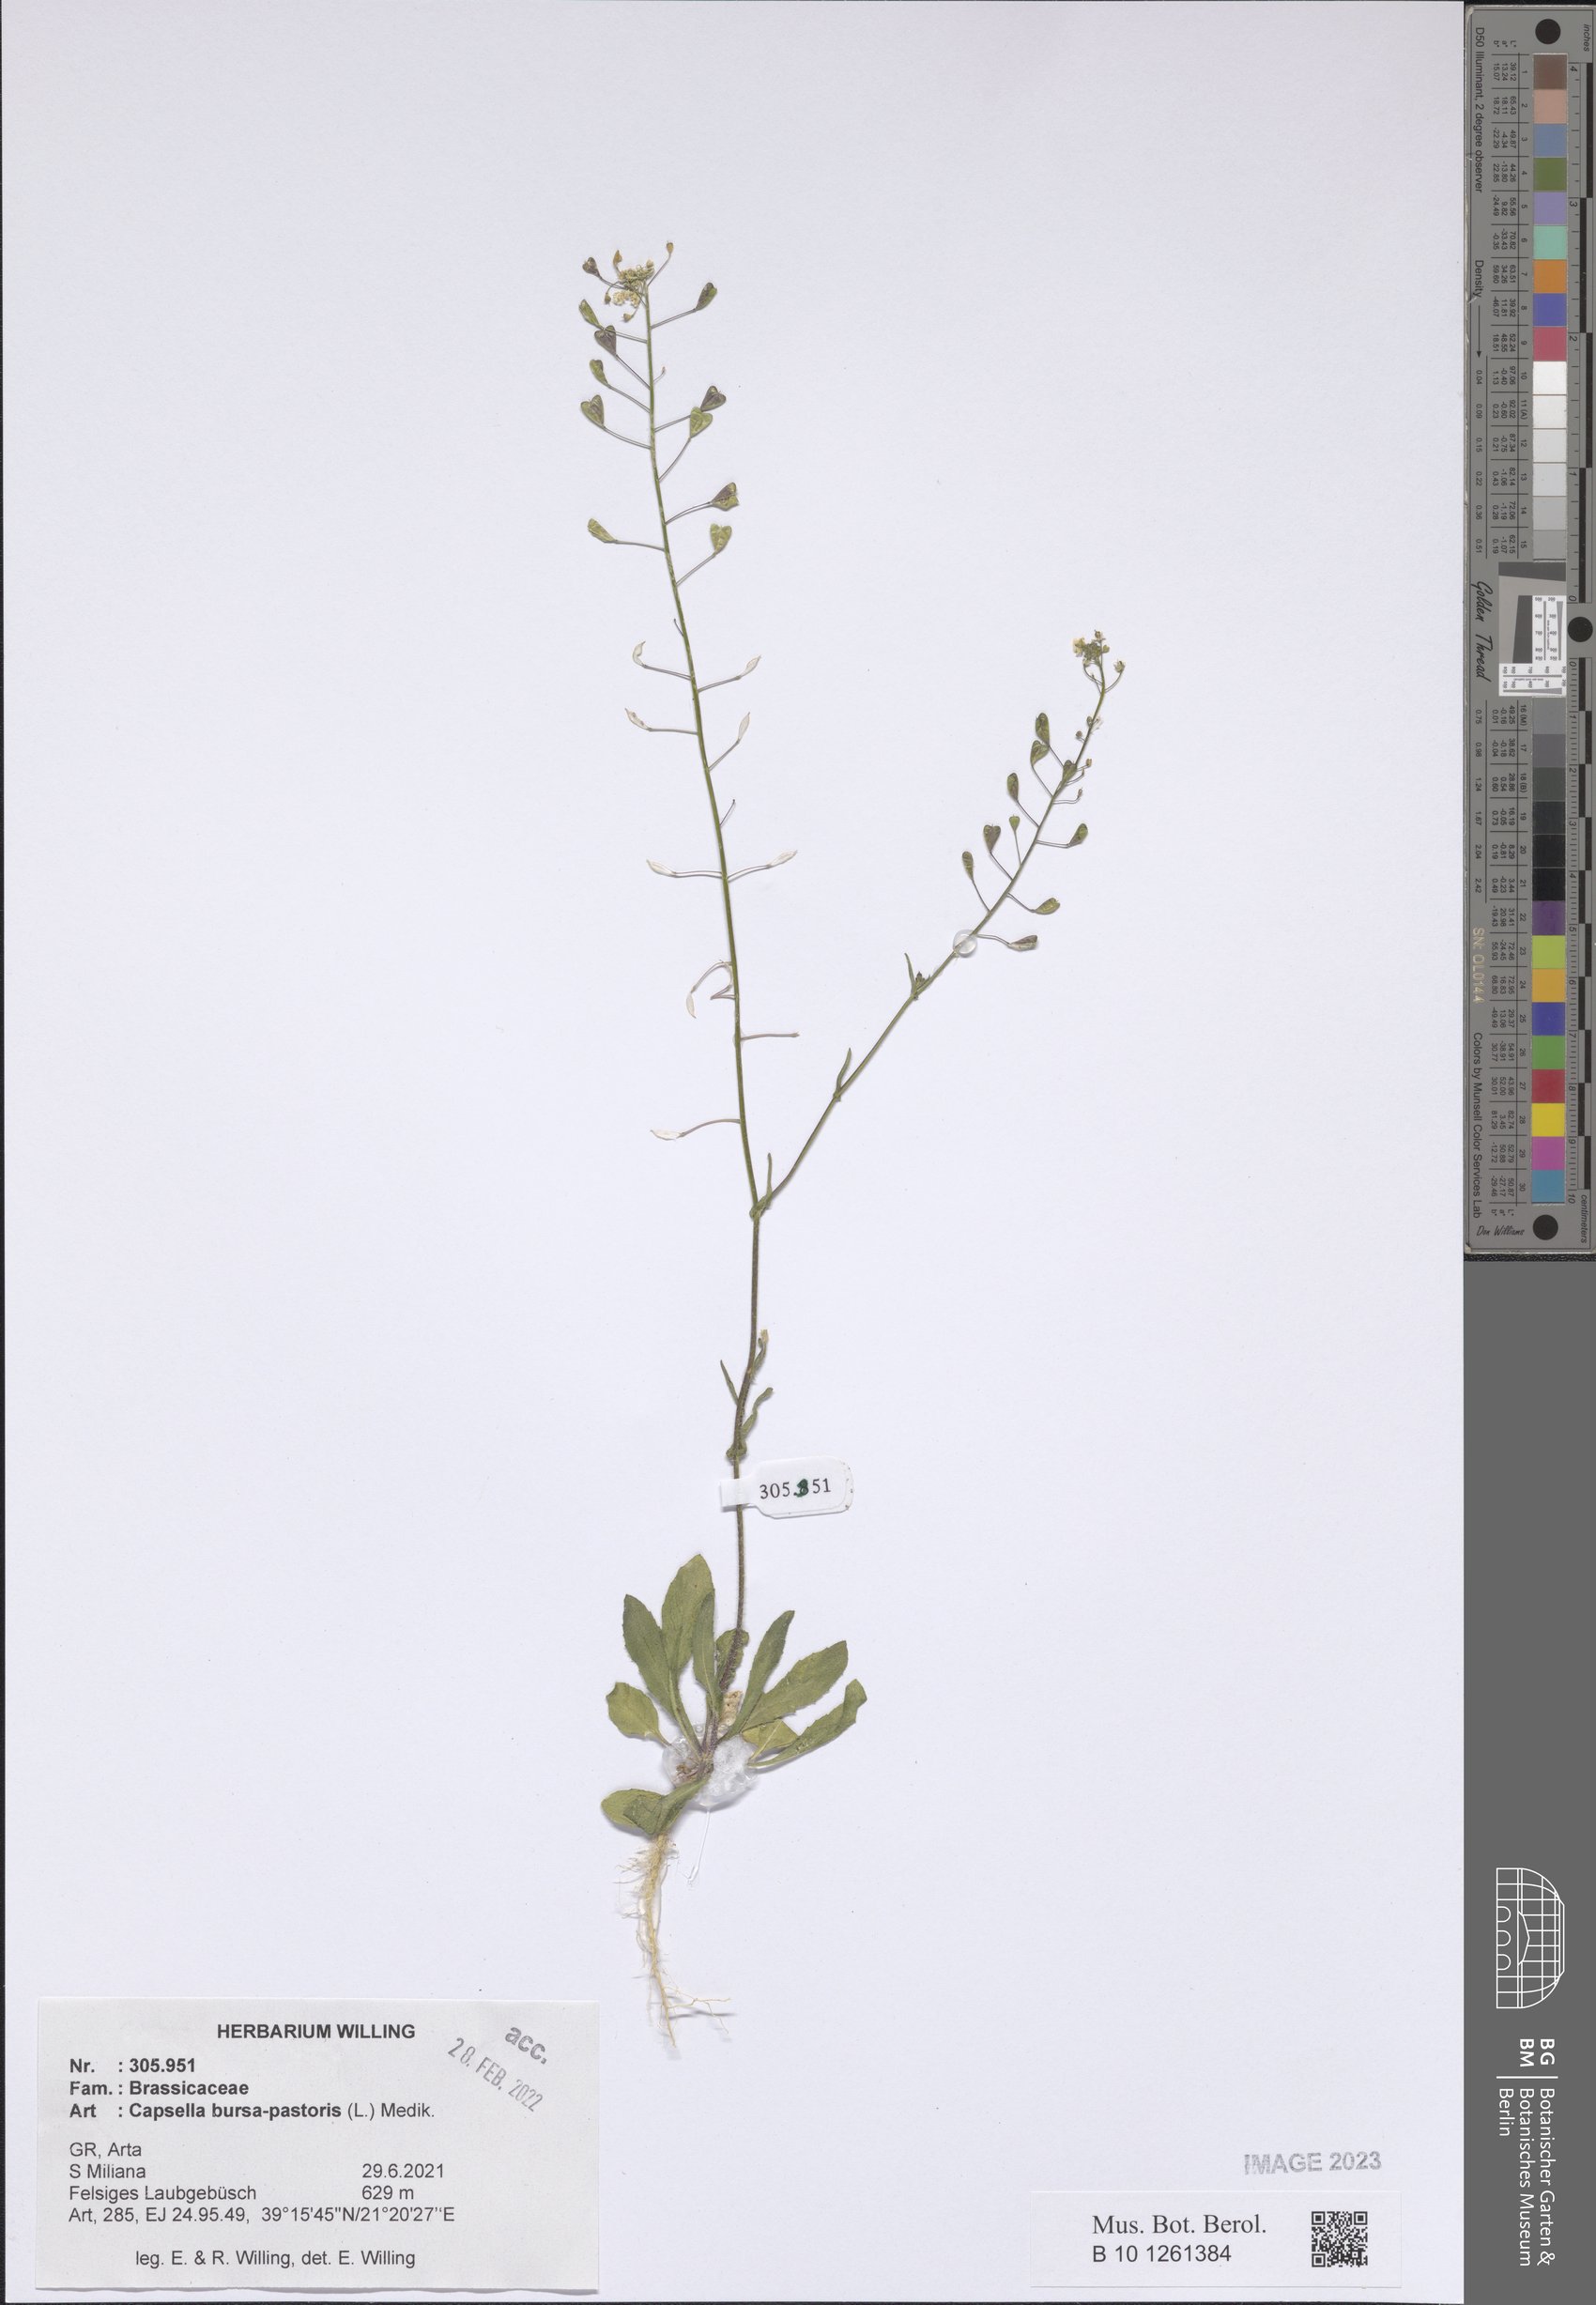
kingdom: Plantae
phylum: Tracheophyta
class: Magnoliopsida
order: Brassicales
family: Brassicaceae
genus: Capsella
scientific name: Capsella bursa-pastoris
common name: Shepherd's purse
